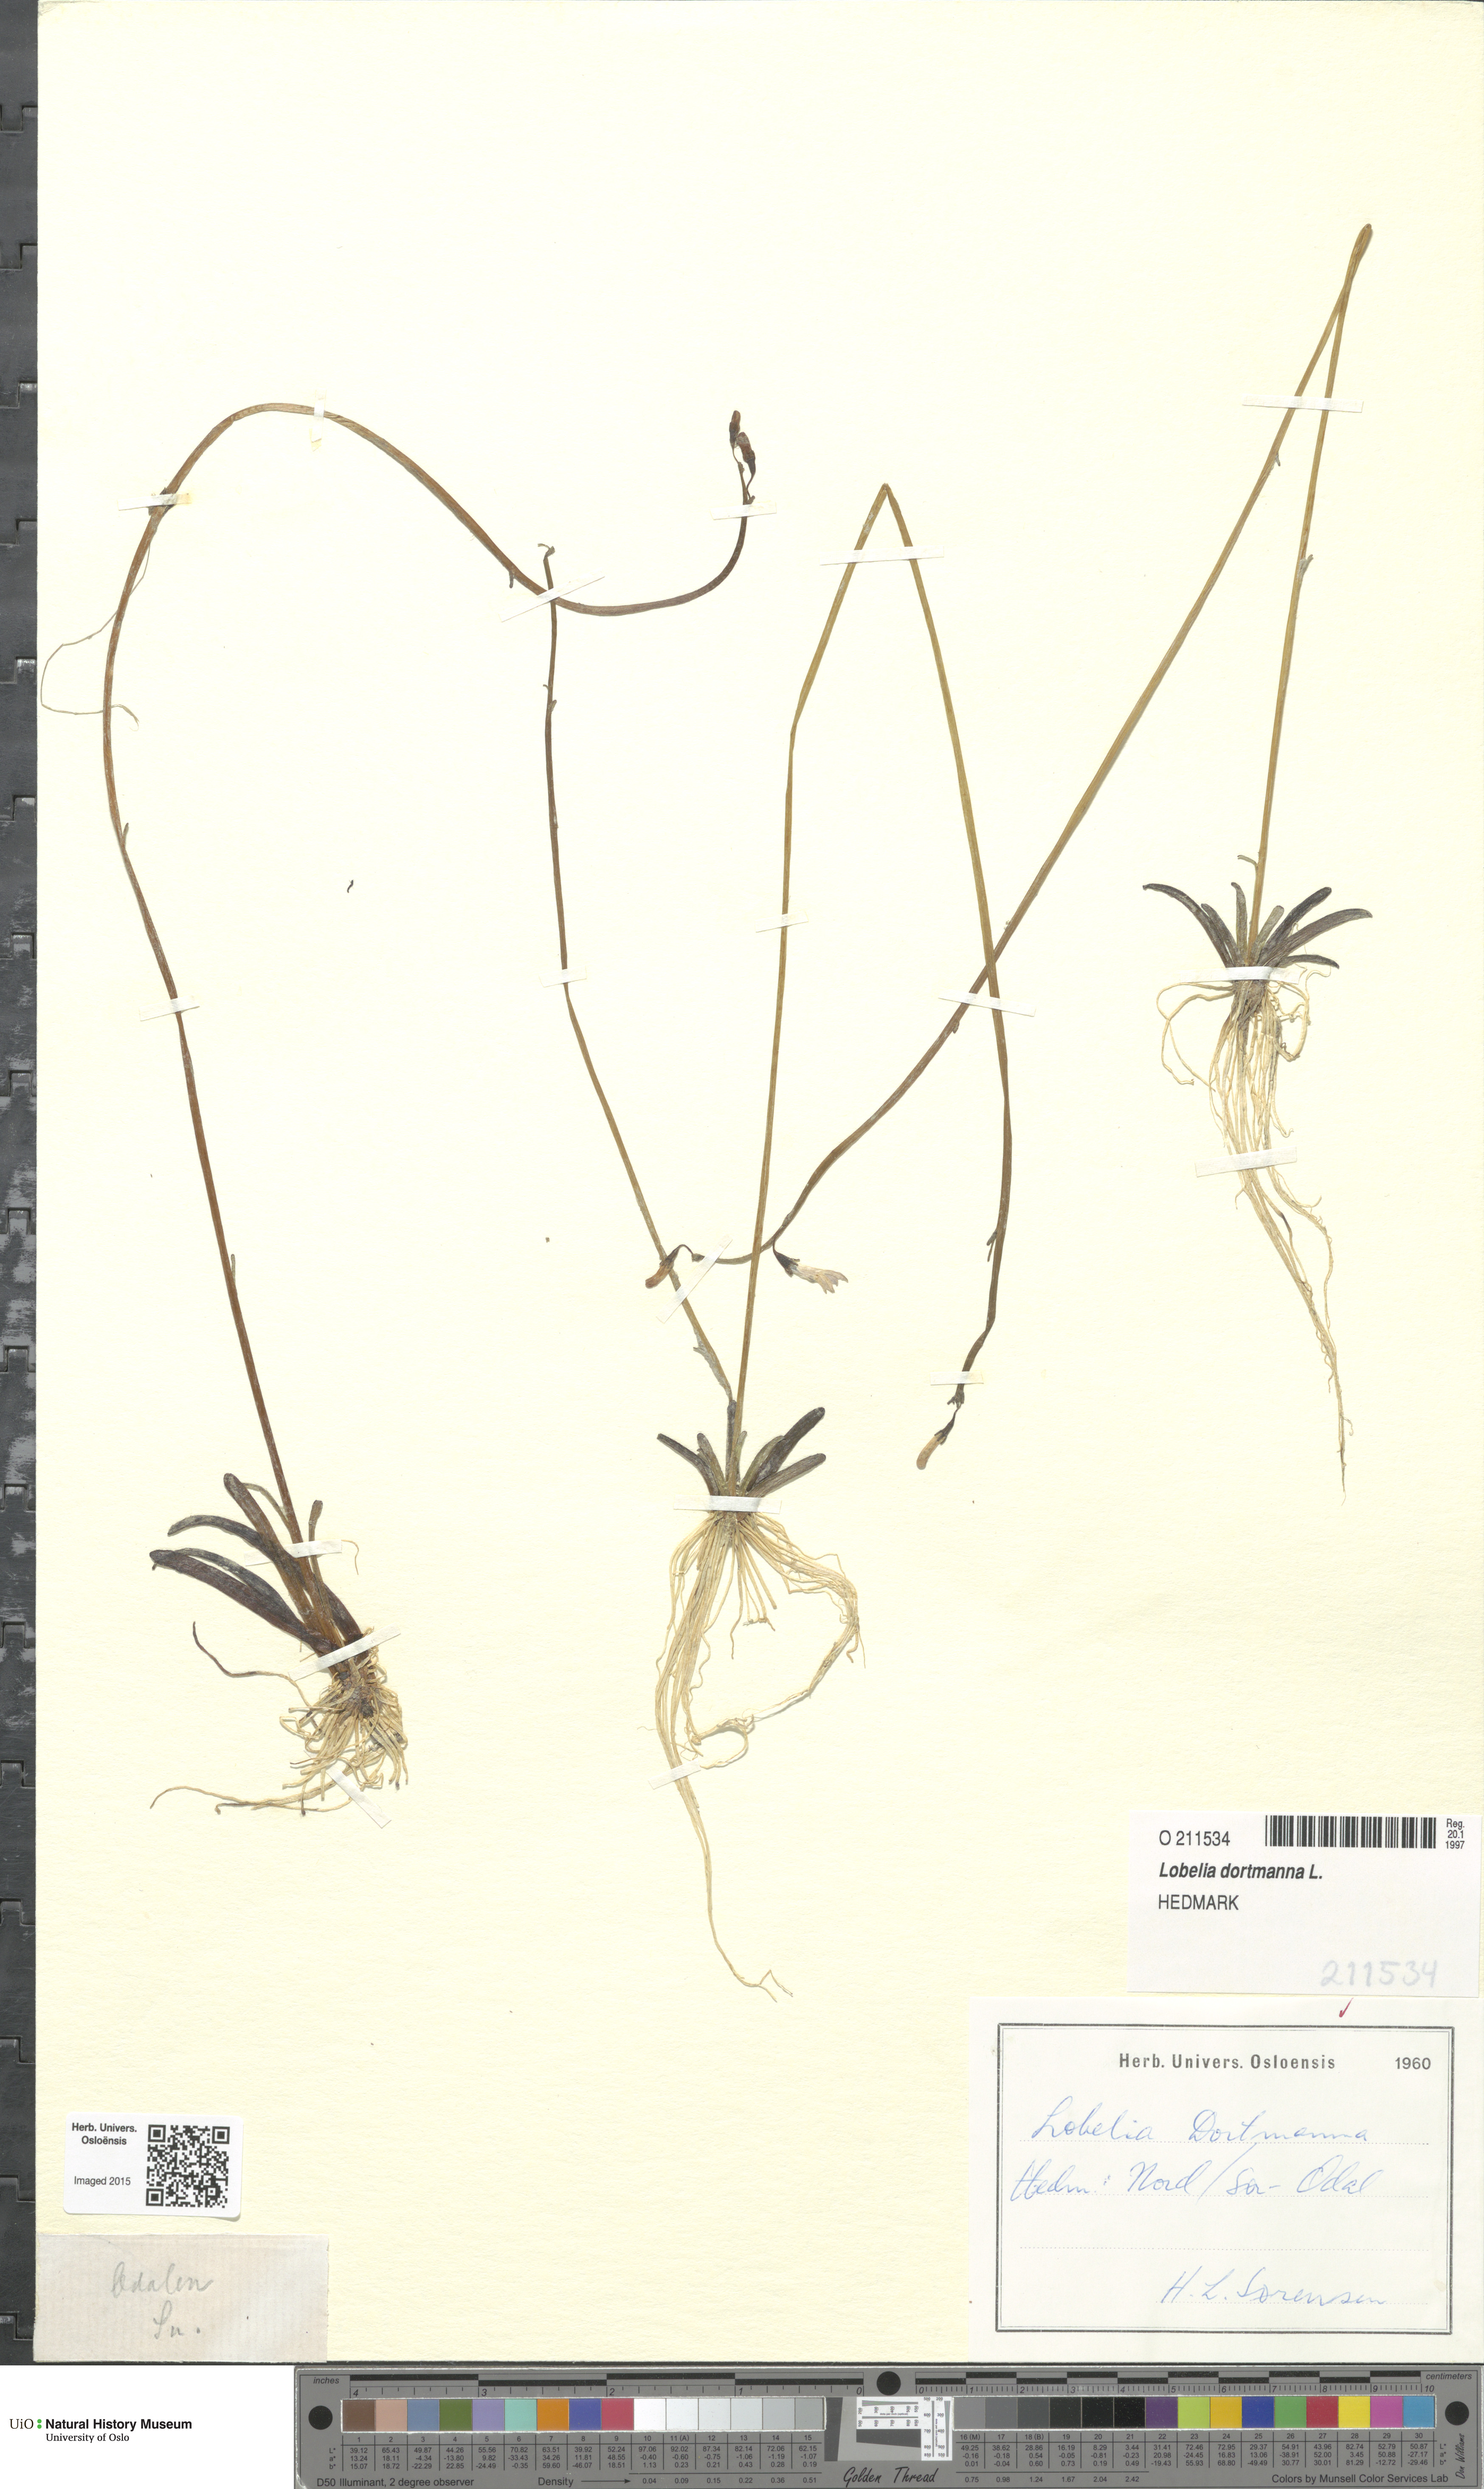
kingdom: Plantae
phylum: Tracheophyta
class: Magnoliopsida
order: Asterales
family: Campanulaceae
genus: Lobelia
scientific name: Lobelia dortmanna
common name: Water lobelia
